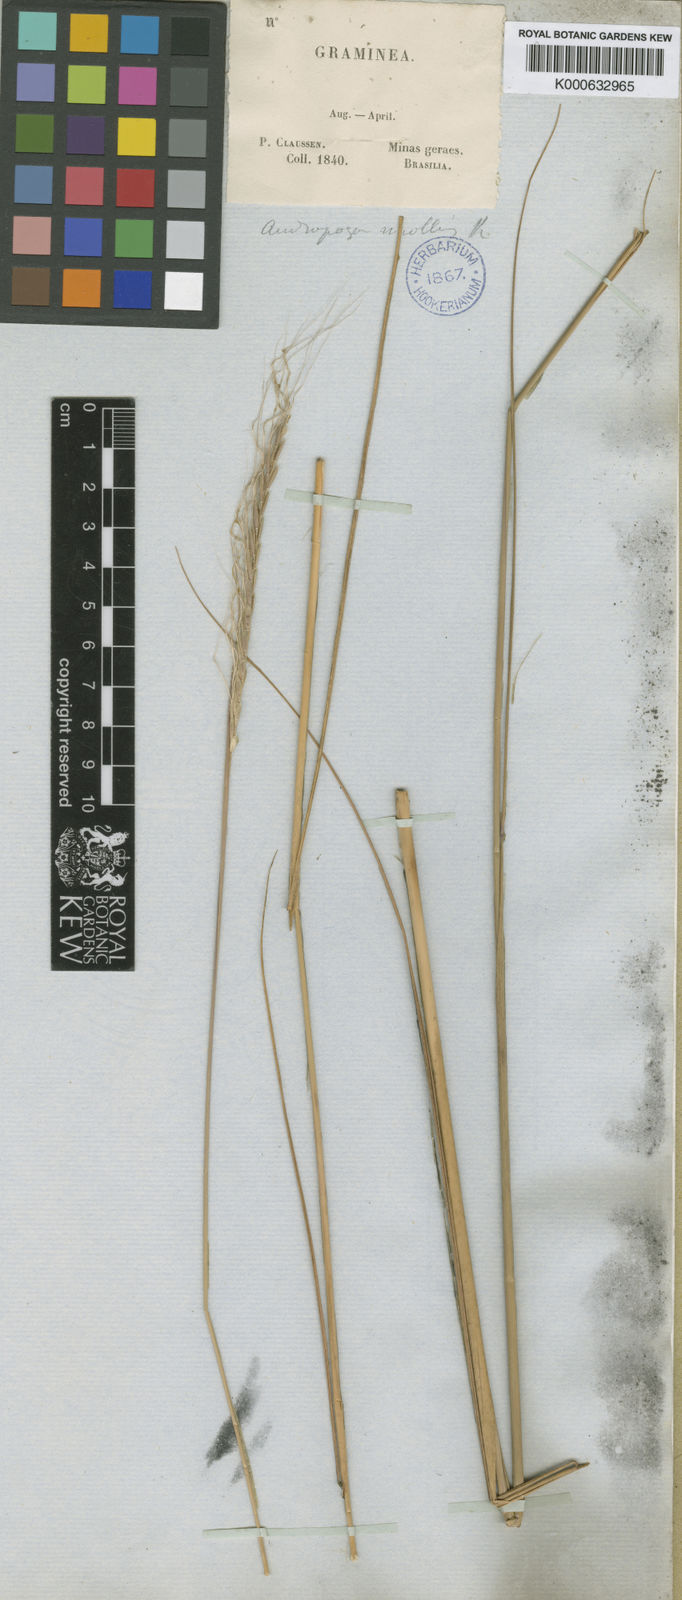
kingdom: Plantae
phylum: Tracheophyta
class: Liliopsida
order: Poales
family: Poaceae
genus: Trachypogon
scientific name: Trachypogon spicatus
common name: Crinkle-awn
